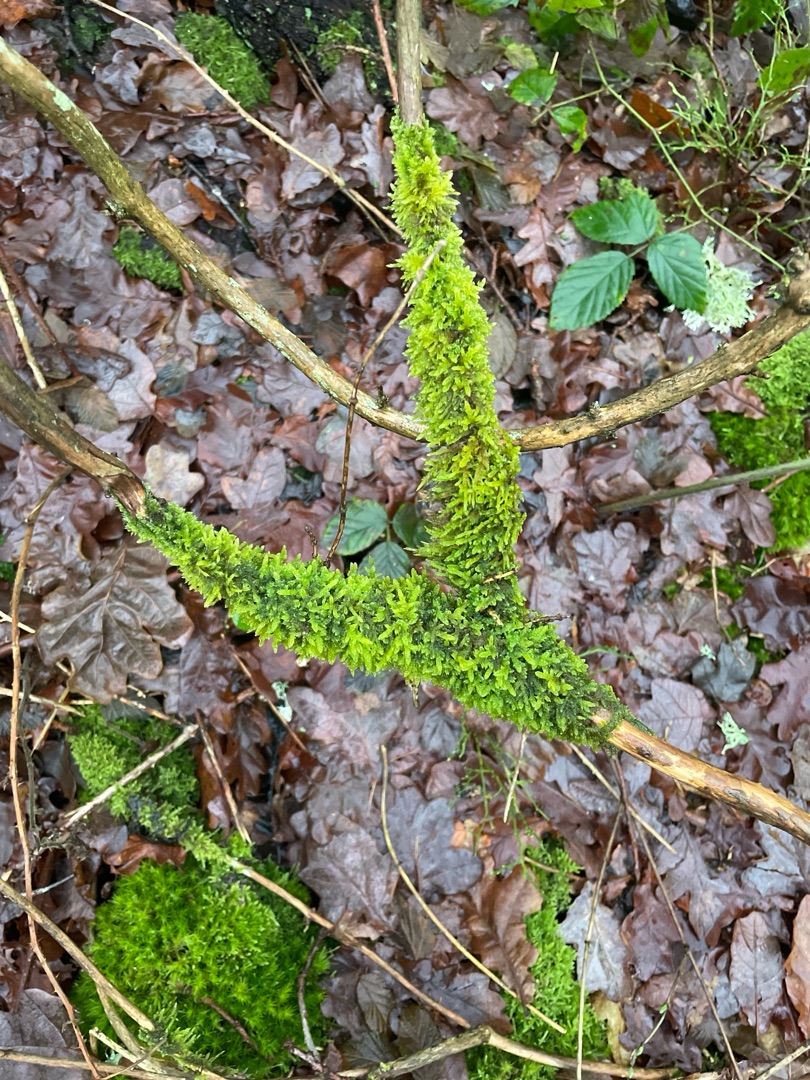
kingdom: Plantae
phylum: Bryophyta
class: Bryopsida
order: Hypnales
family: Hypnaceae
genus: Hypnum
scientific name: Hypnum cupressiforme
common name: Almindelig cypresmos
